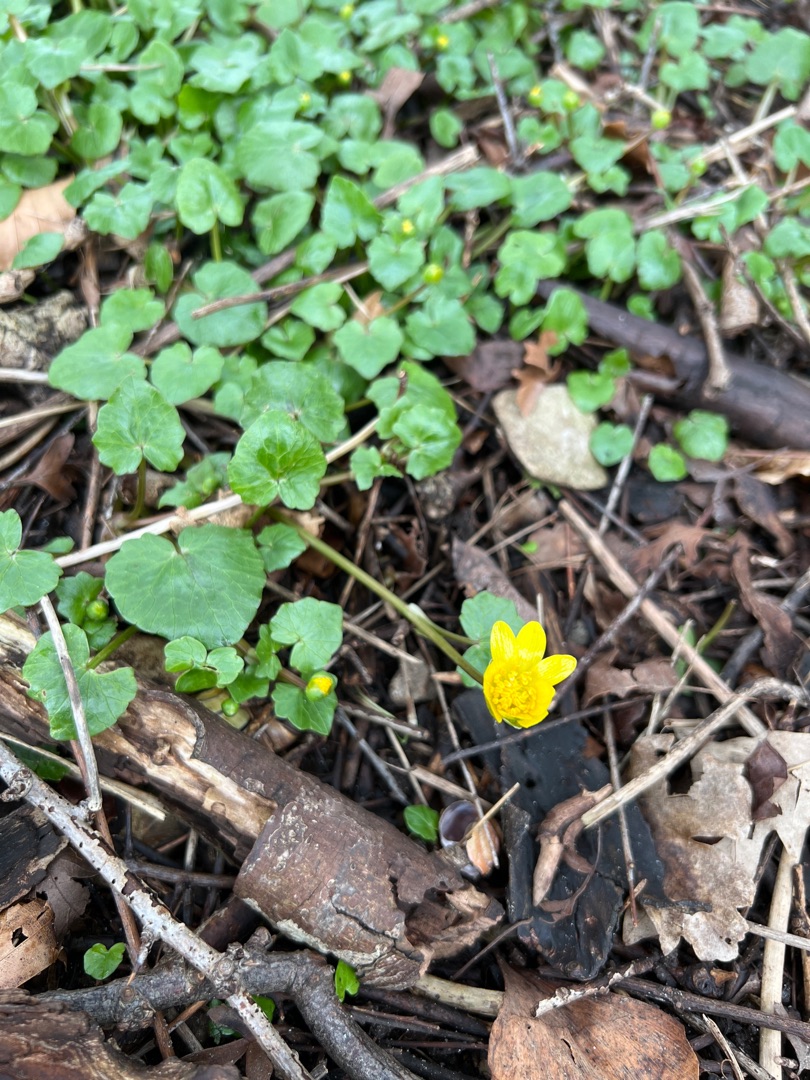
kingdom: Plantae
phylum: Tracheophyta
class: Magnoliopsida
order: Ranunculales
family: Ranunculaceae
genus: Ficaria
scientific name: Ficaria verna
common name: Vorterod
